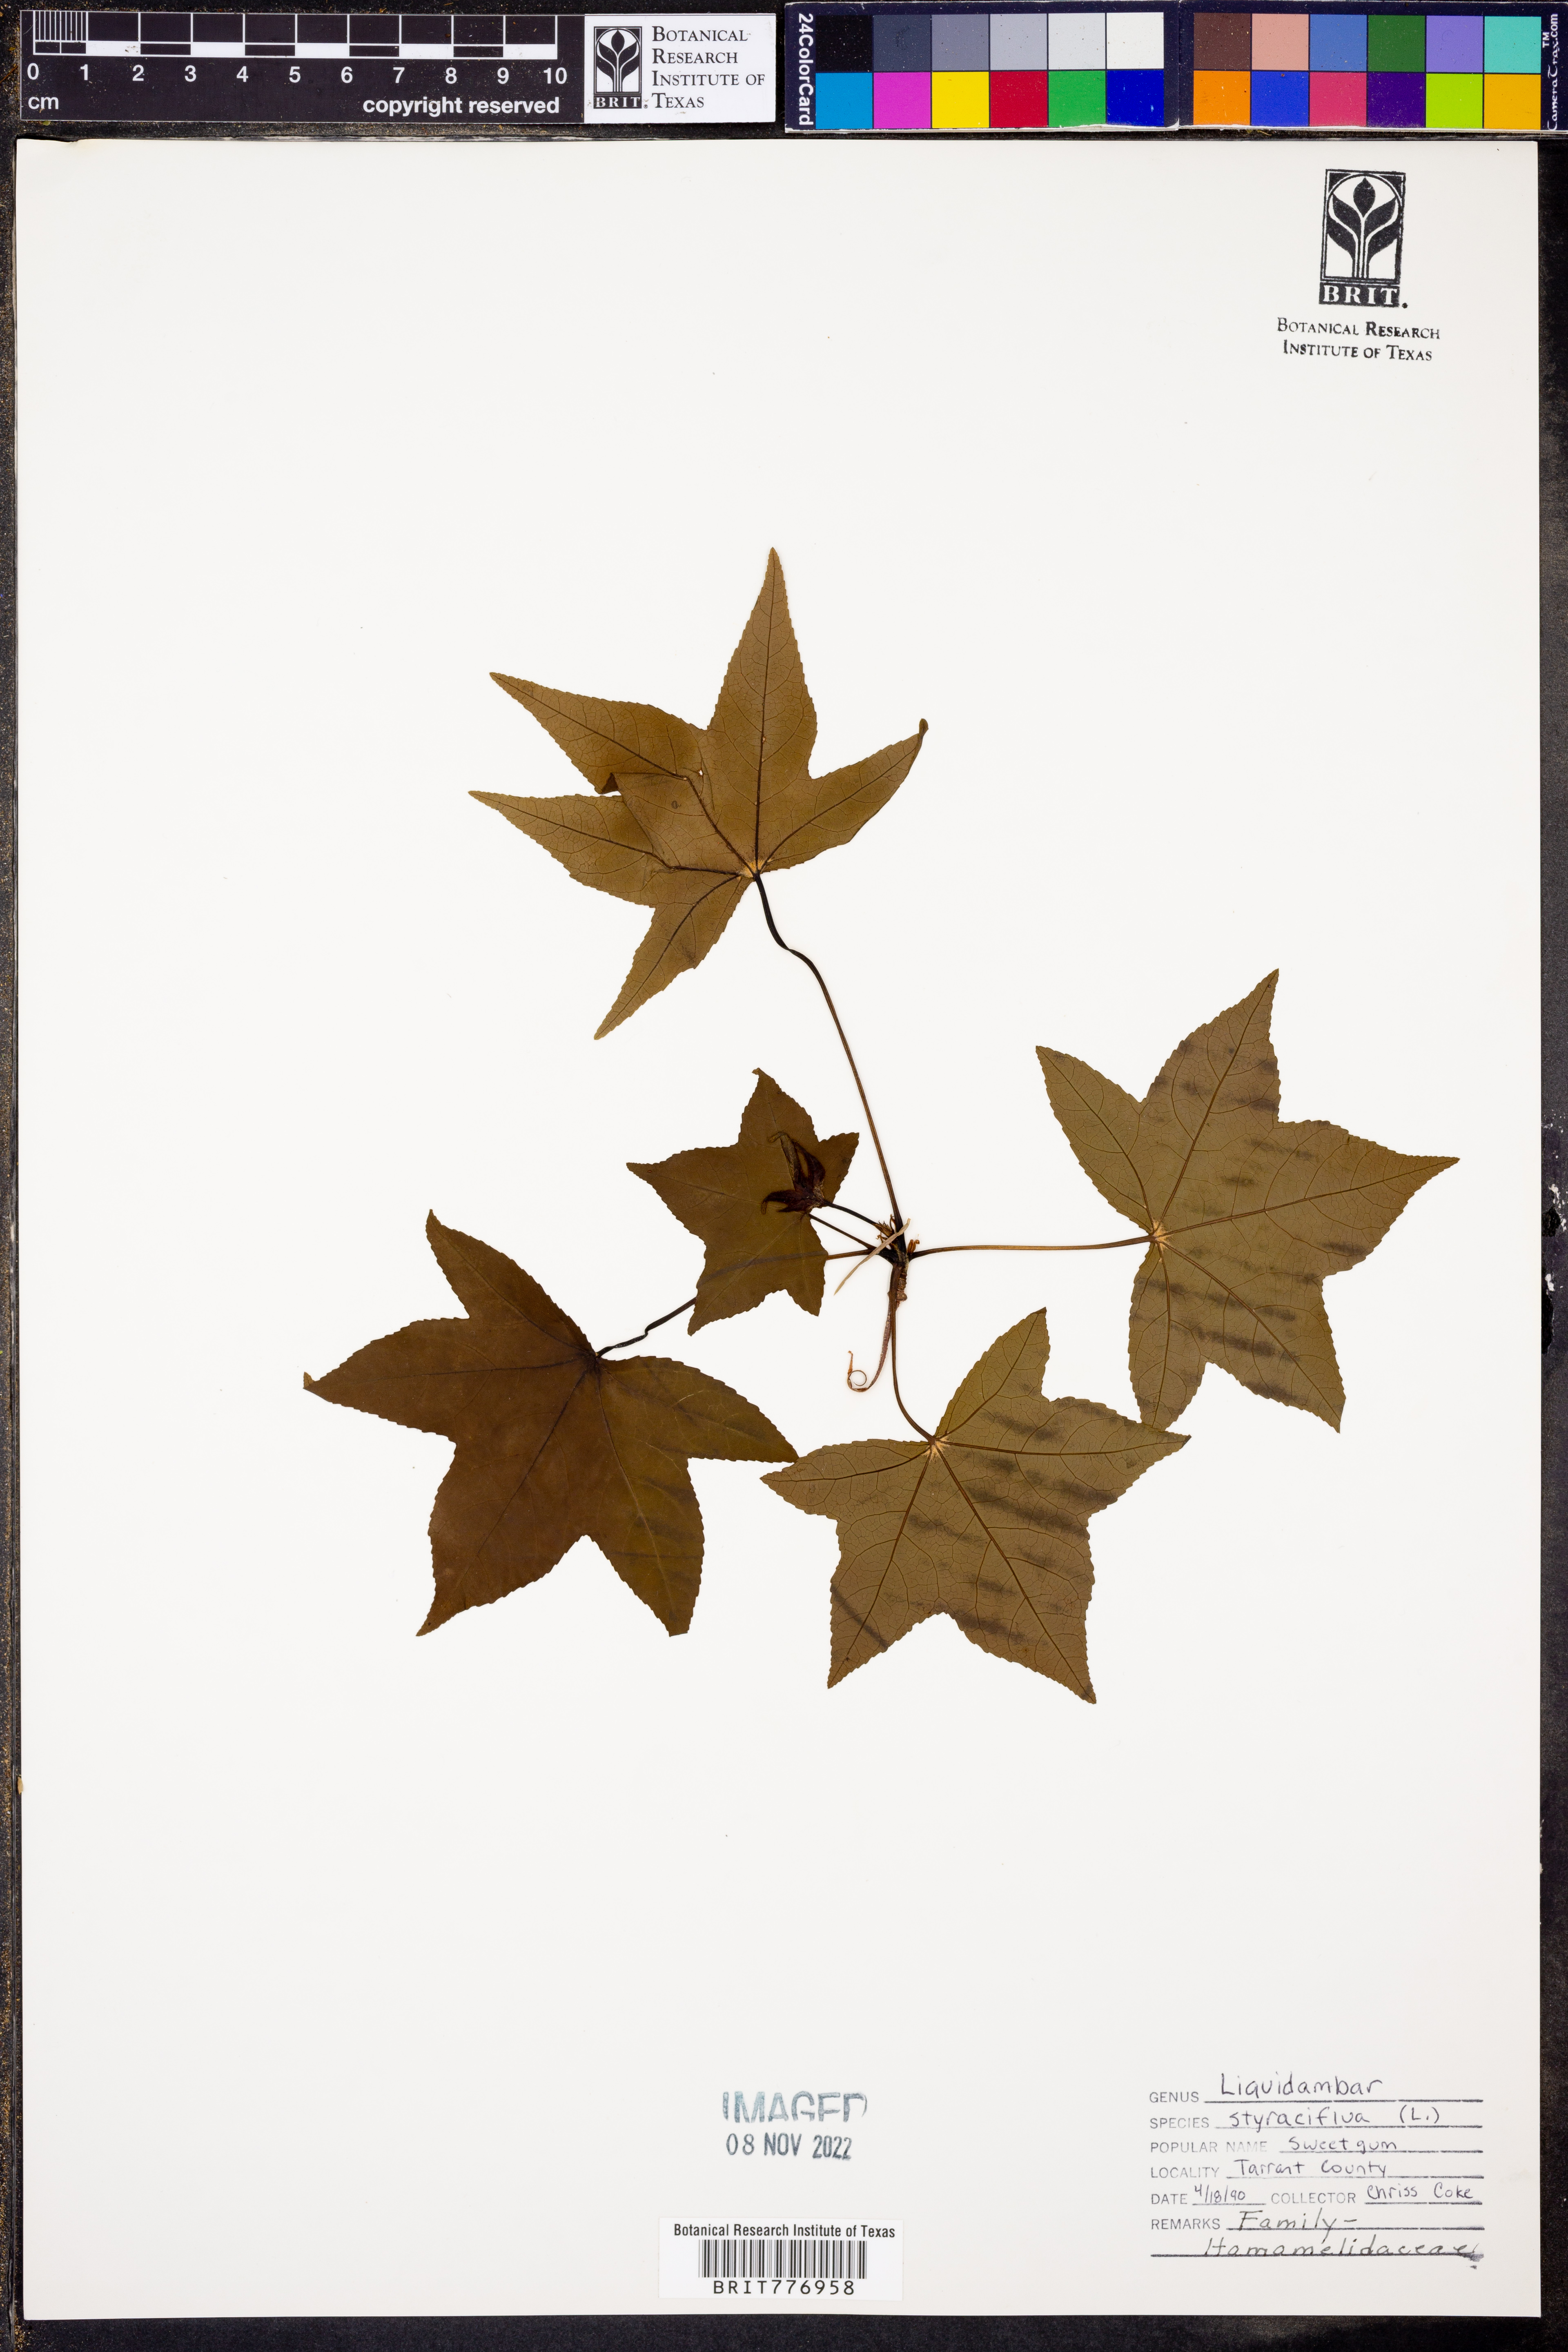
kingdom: Plantae
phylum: Tracheophyta
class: Magnoliopsida
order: Saxifragales
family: Altingiaceae
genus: Liquidambar
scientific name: Liquidambar styraciflua
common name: Sweet gum
